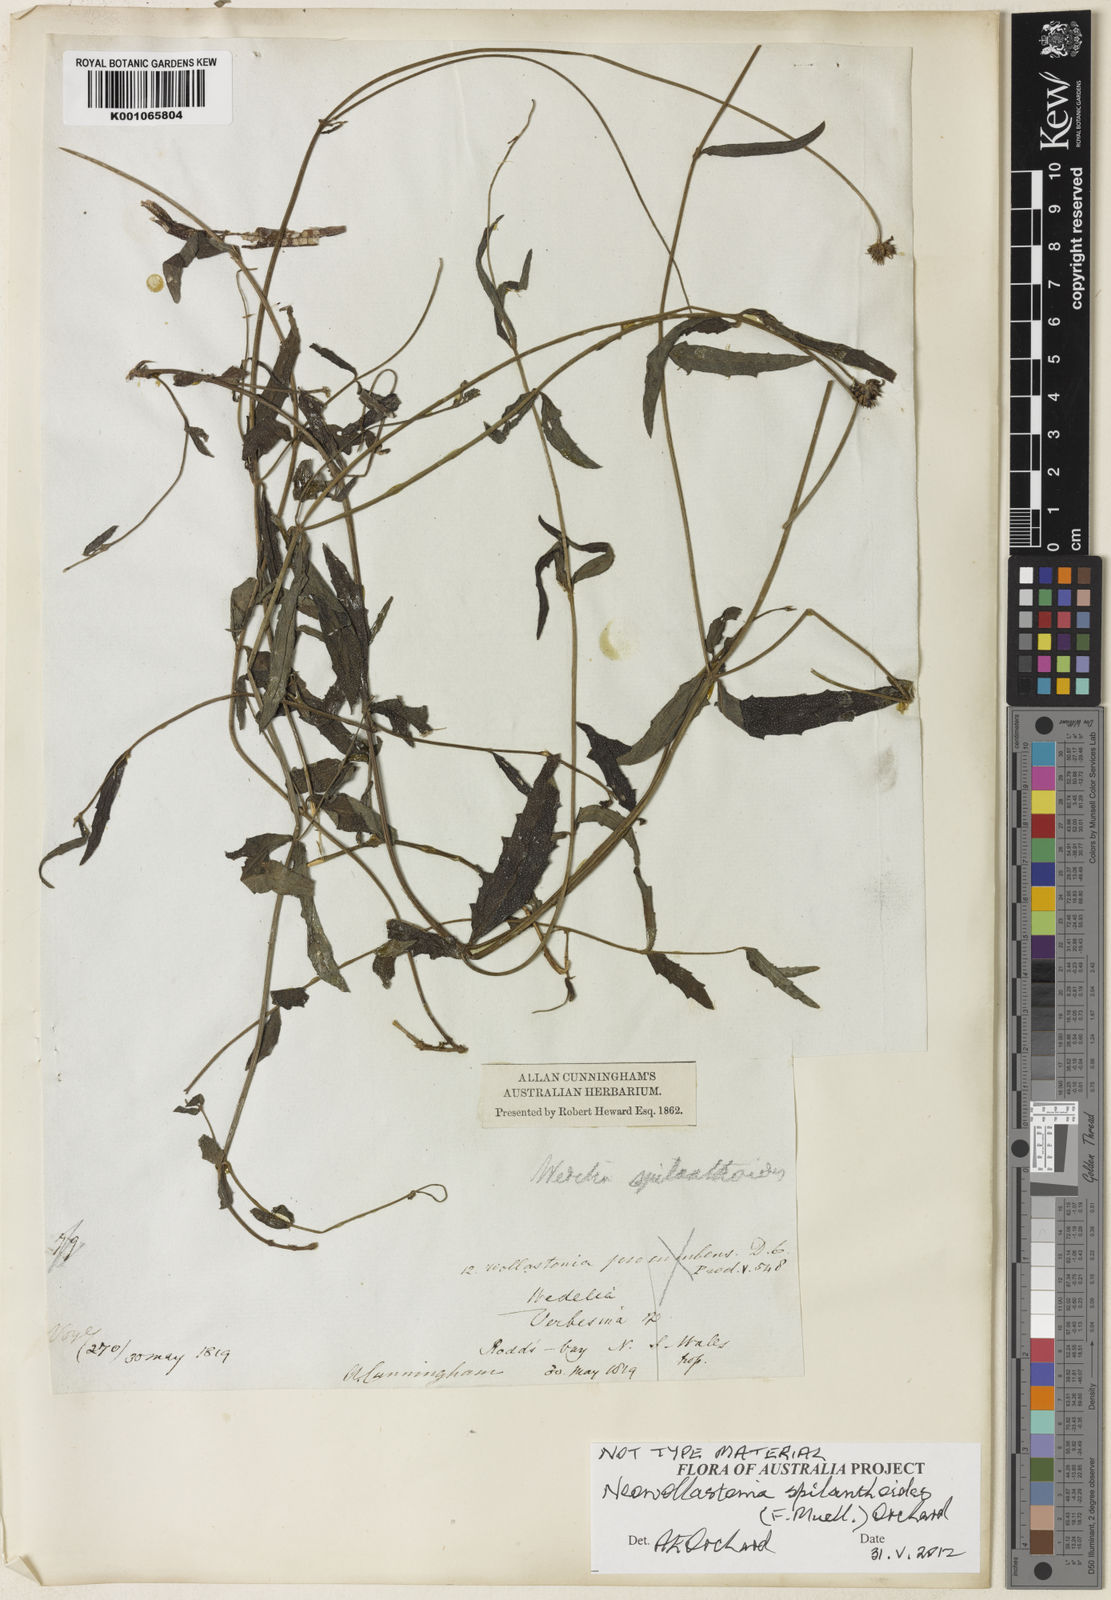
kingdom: Plantae
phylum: Tracheophyta
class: Magnoliopsida
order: Asterales
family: Asteraceae
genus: Apowollastonia
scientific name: Apowollastonia spilanthoides
